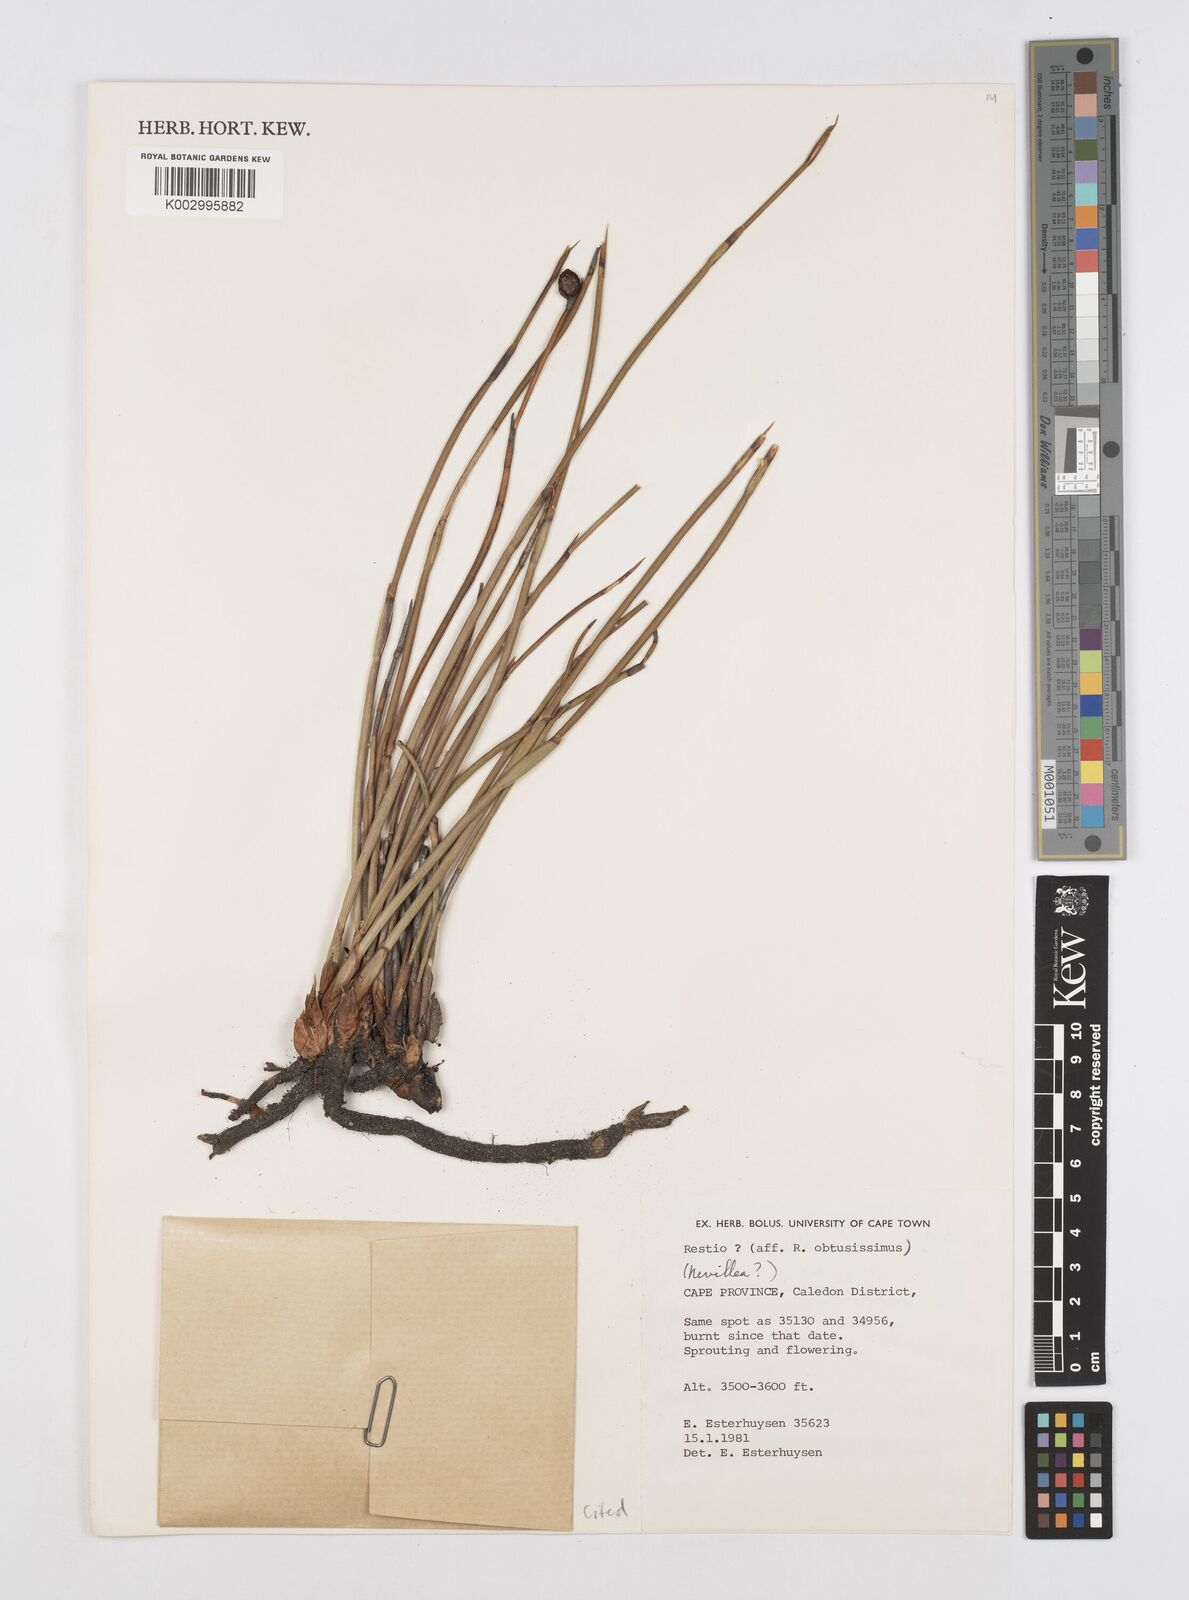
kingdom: Plantae
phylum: Tracheophyta
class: Liliopsida
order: Poales
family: Restionaceae
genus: Nevillea
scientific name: Nevillea
